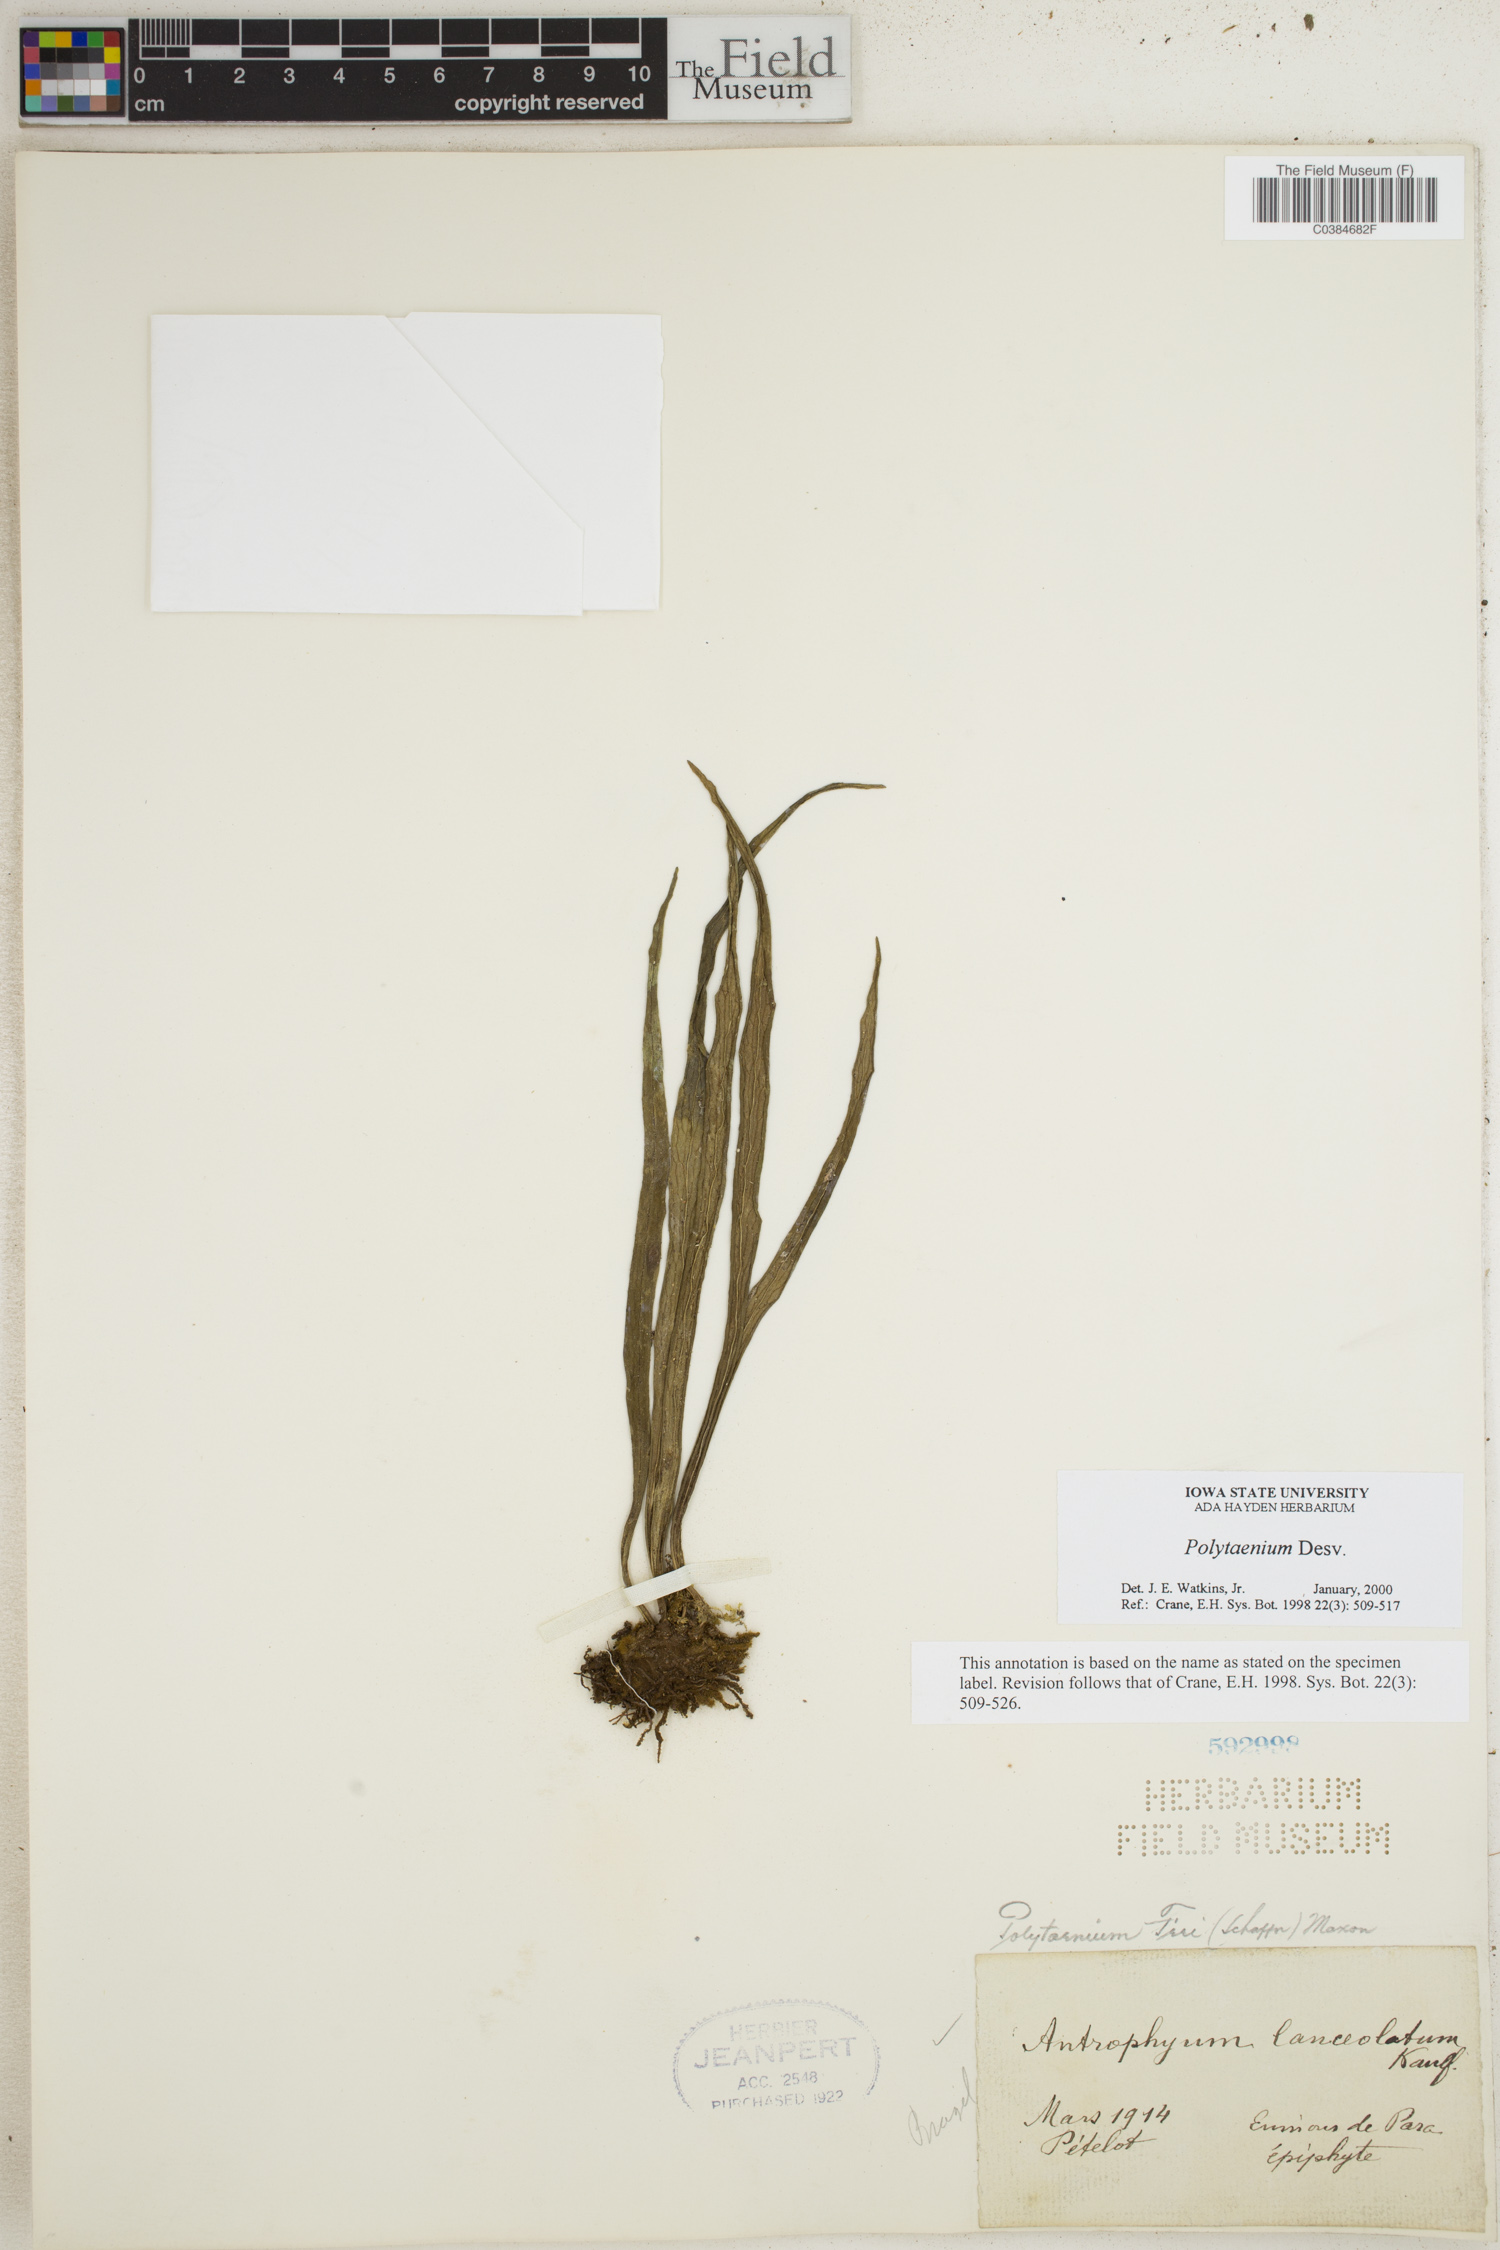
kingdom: Plantae
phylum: Tracheophyta
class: Polypodiopsida
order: Polypodiales
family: Pteridaceae
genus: Polytaenium
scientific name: Polytaenium
